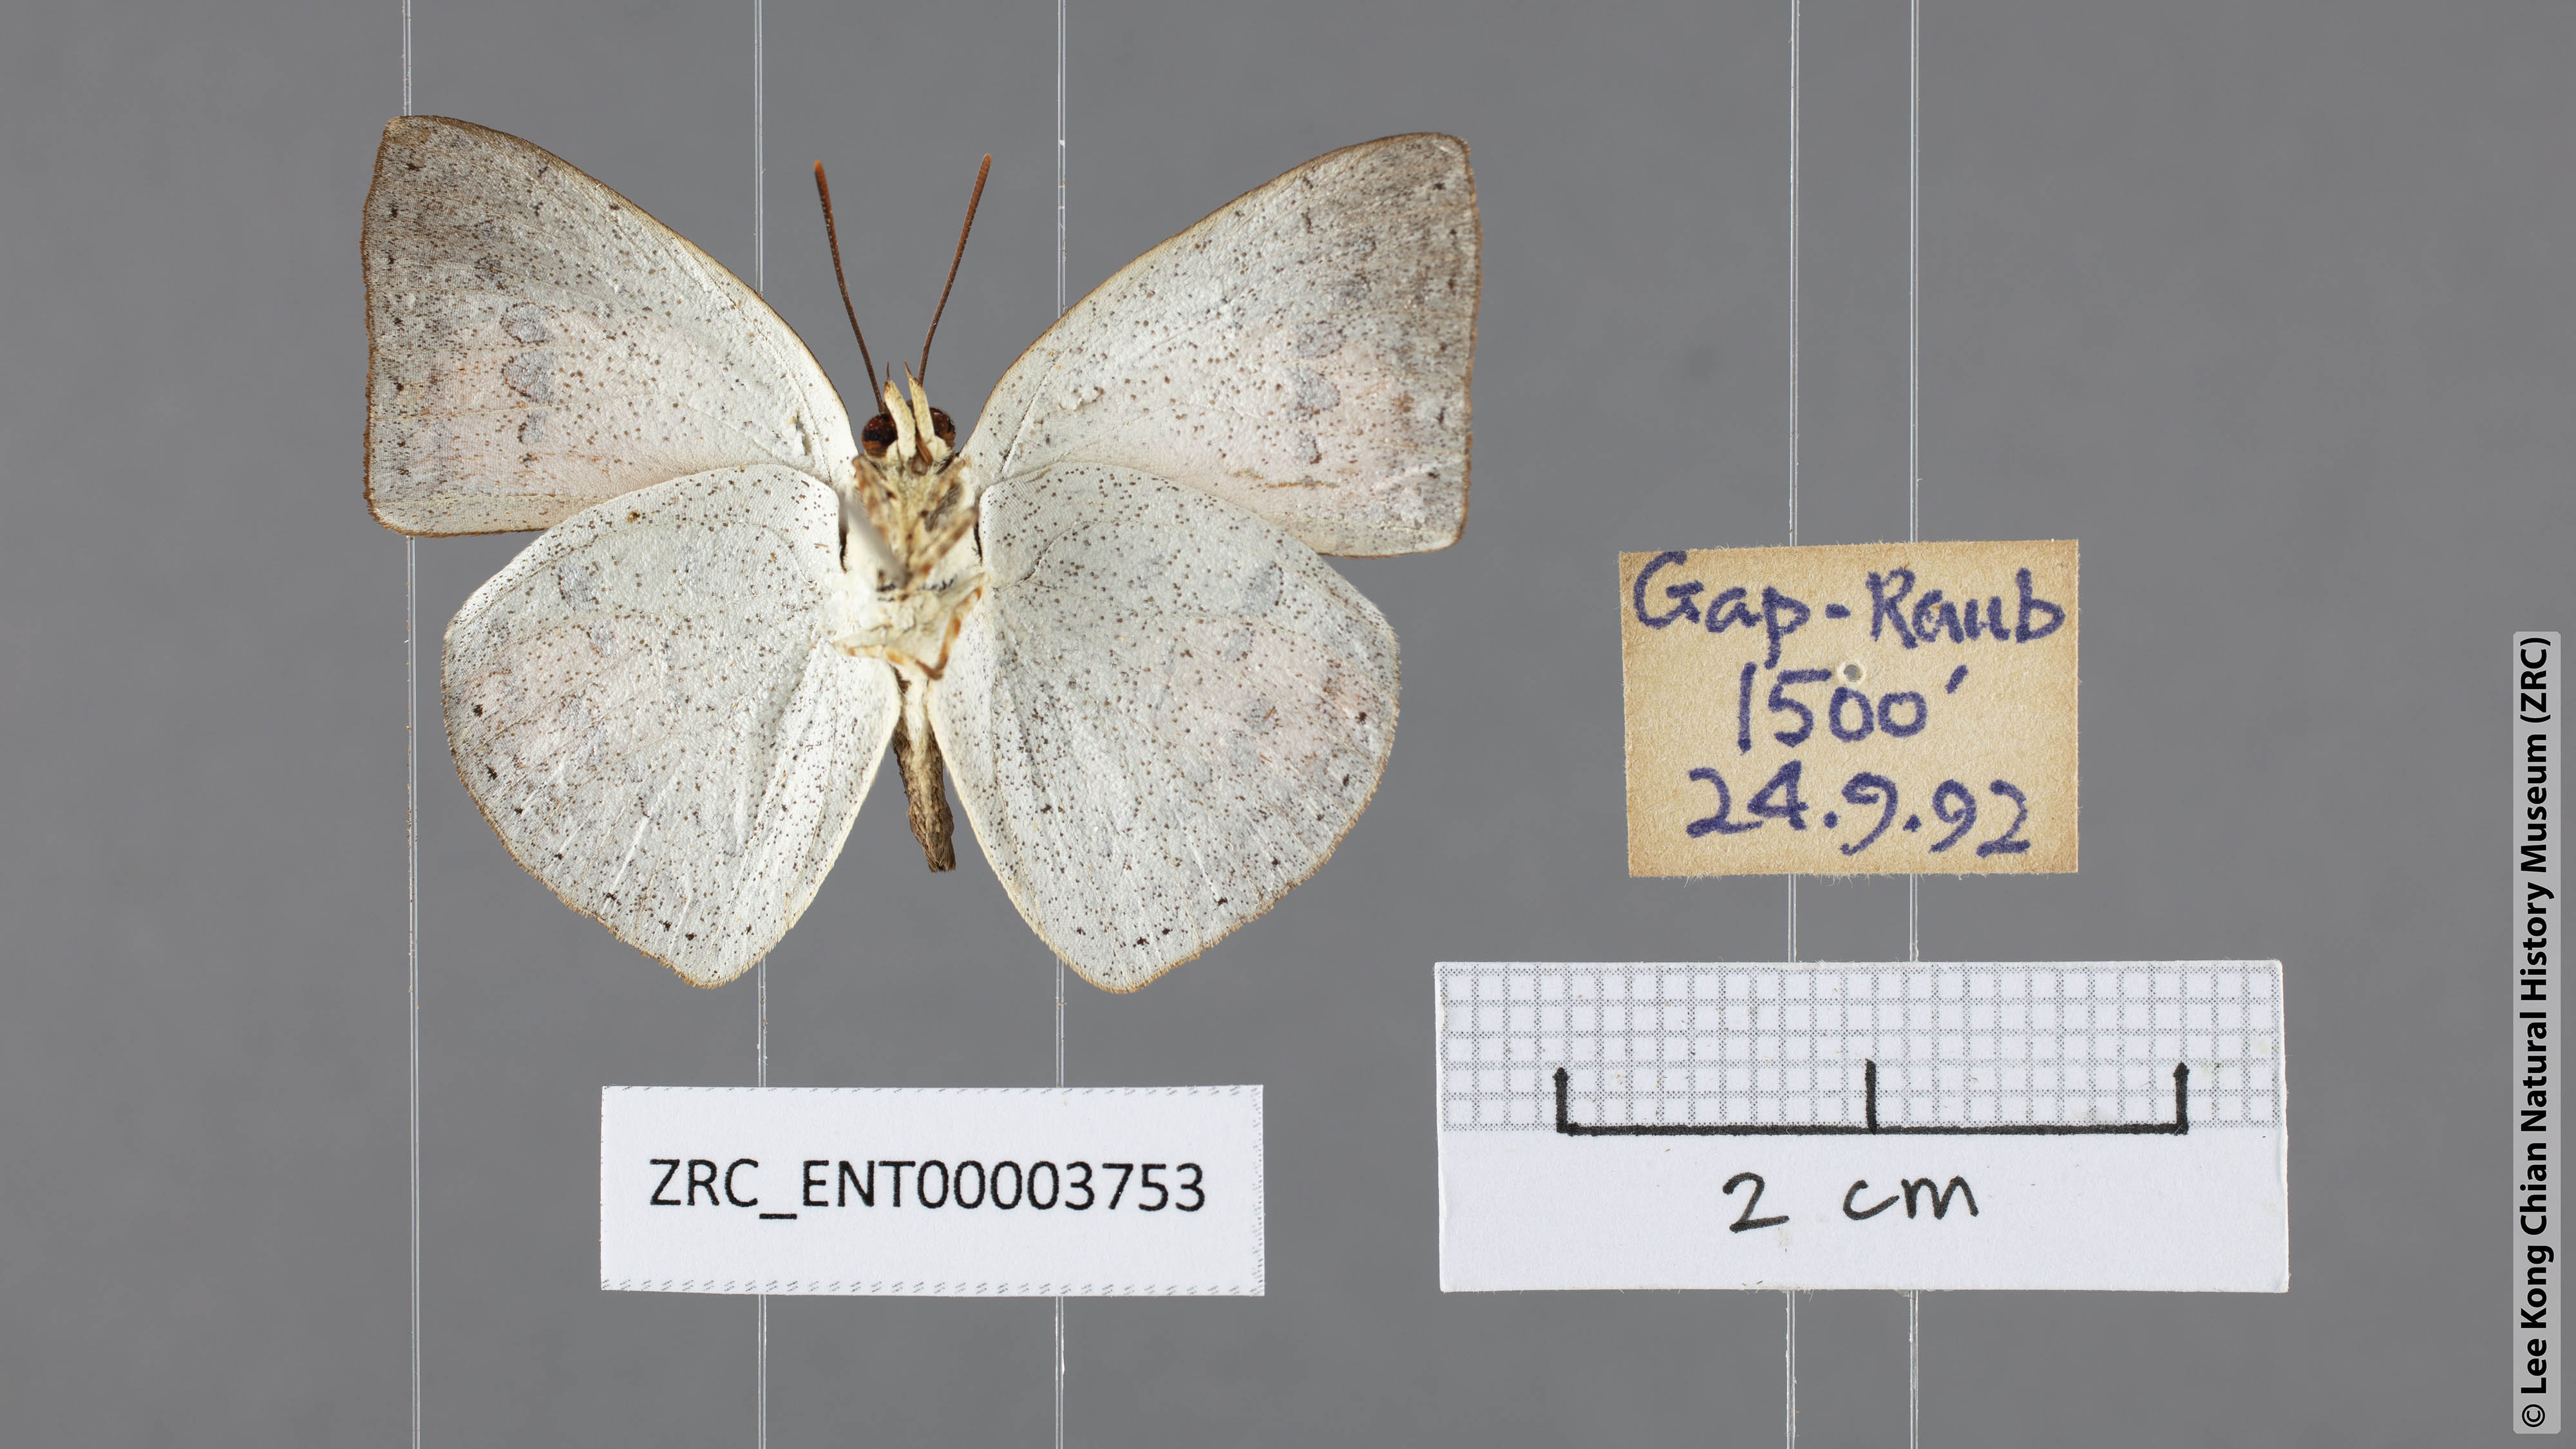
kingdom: Animalia
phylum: Arthropoda
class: Insecta
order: Lepidoptera
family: Lycaenidae
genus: Curetis
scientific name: Curetis saronis
